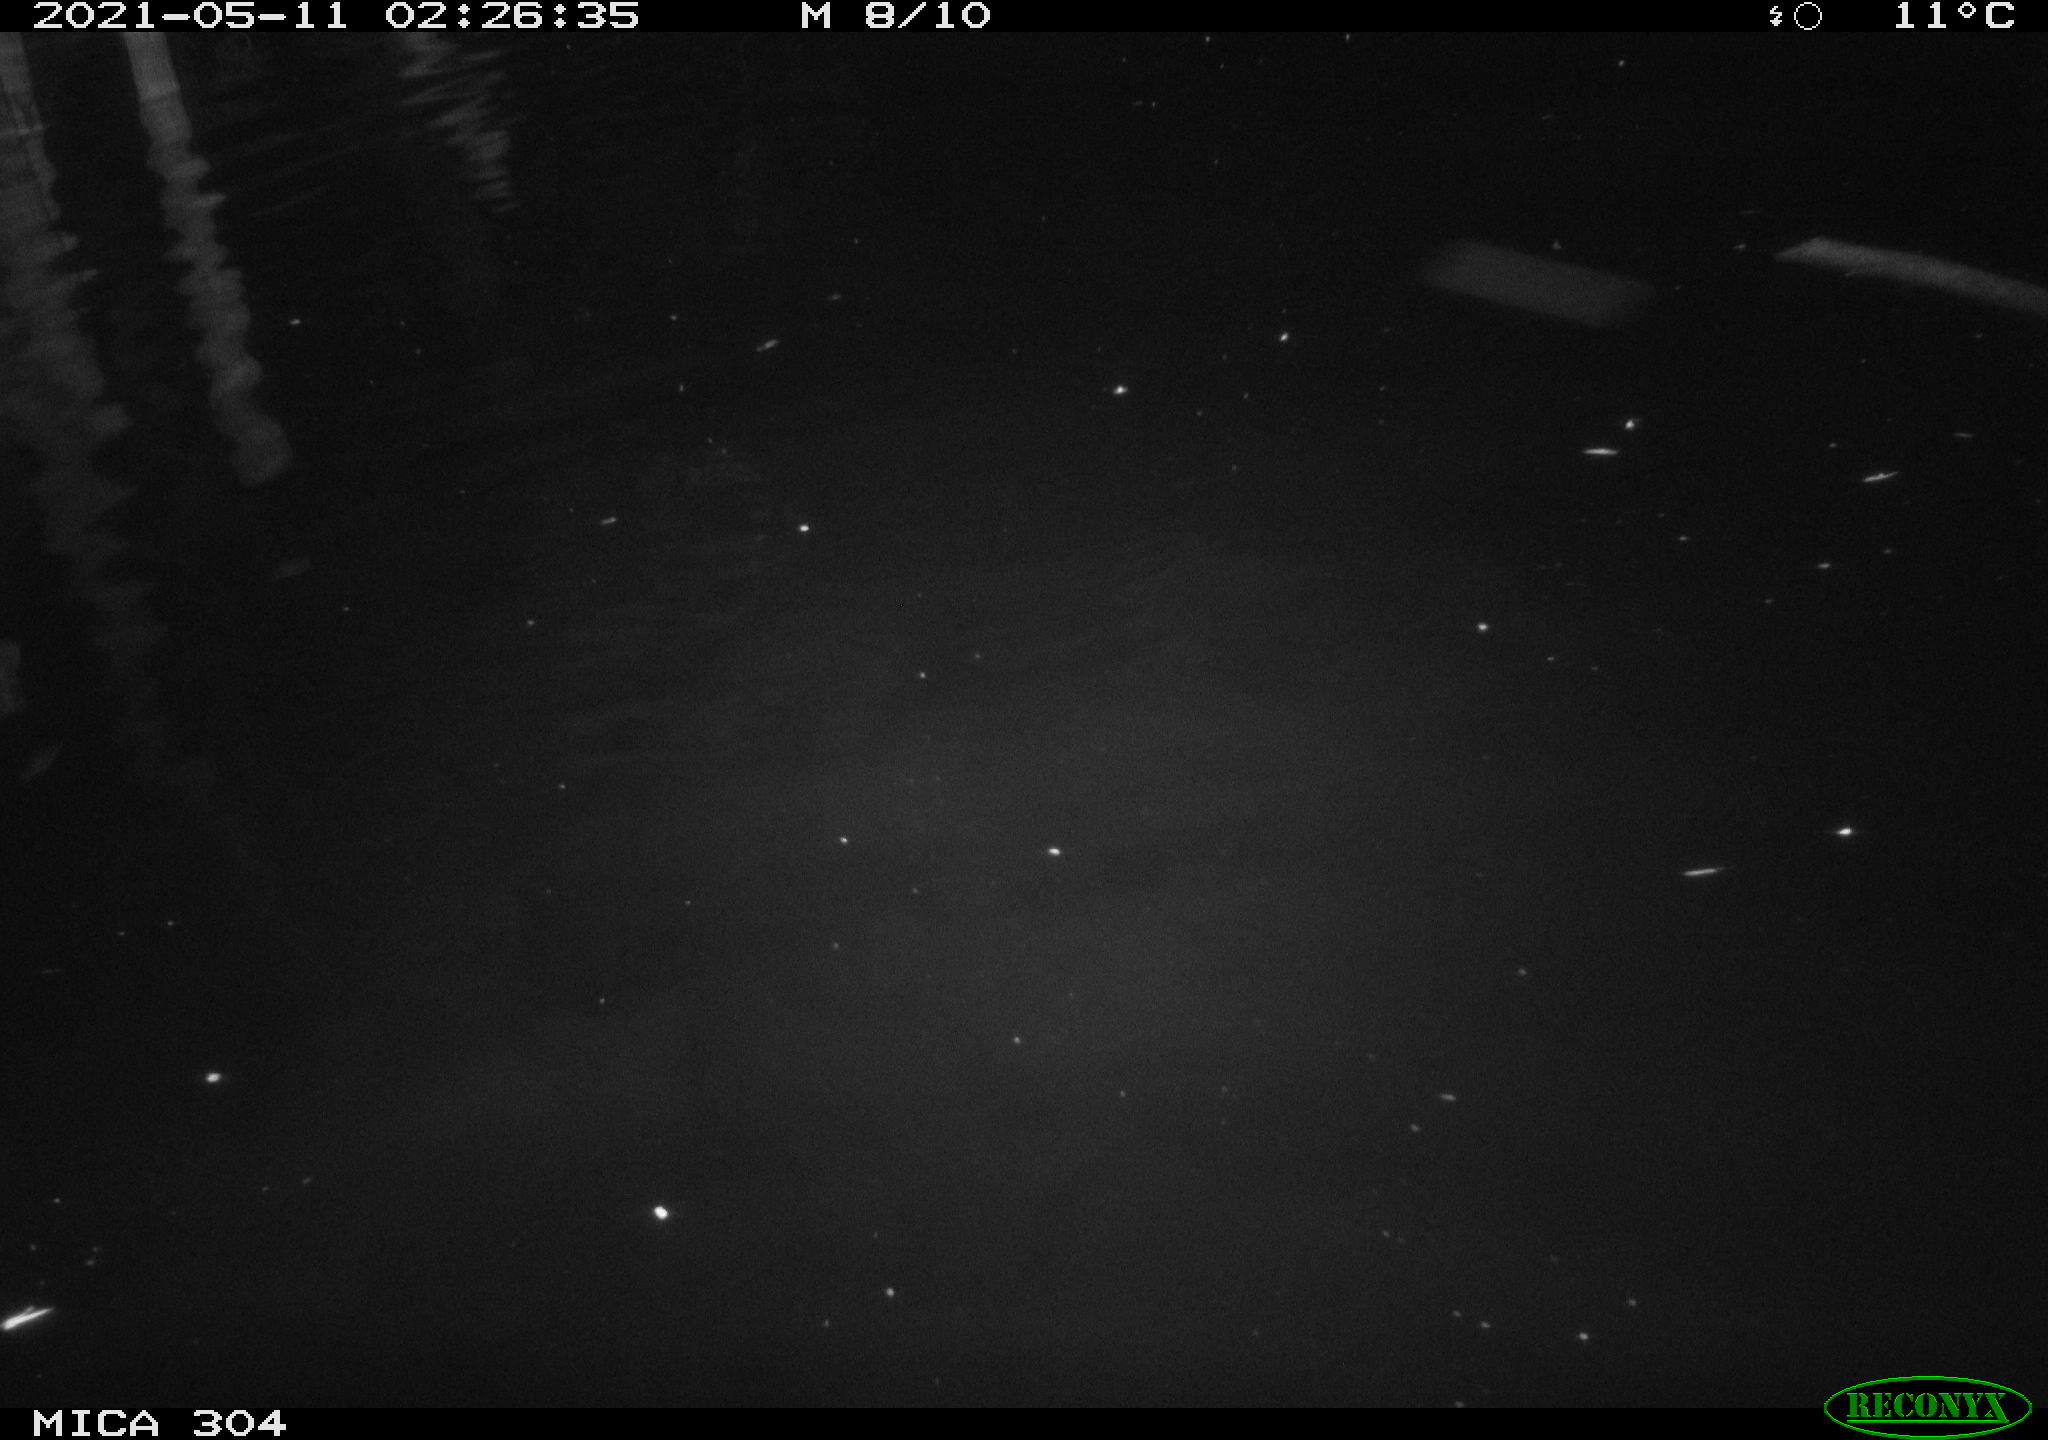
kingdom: Animalia
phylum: Chordata
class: Aves
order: Anseriformes
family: Anatidae
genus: Anas
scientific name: Anas platyrhynchos
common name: Mallard
